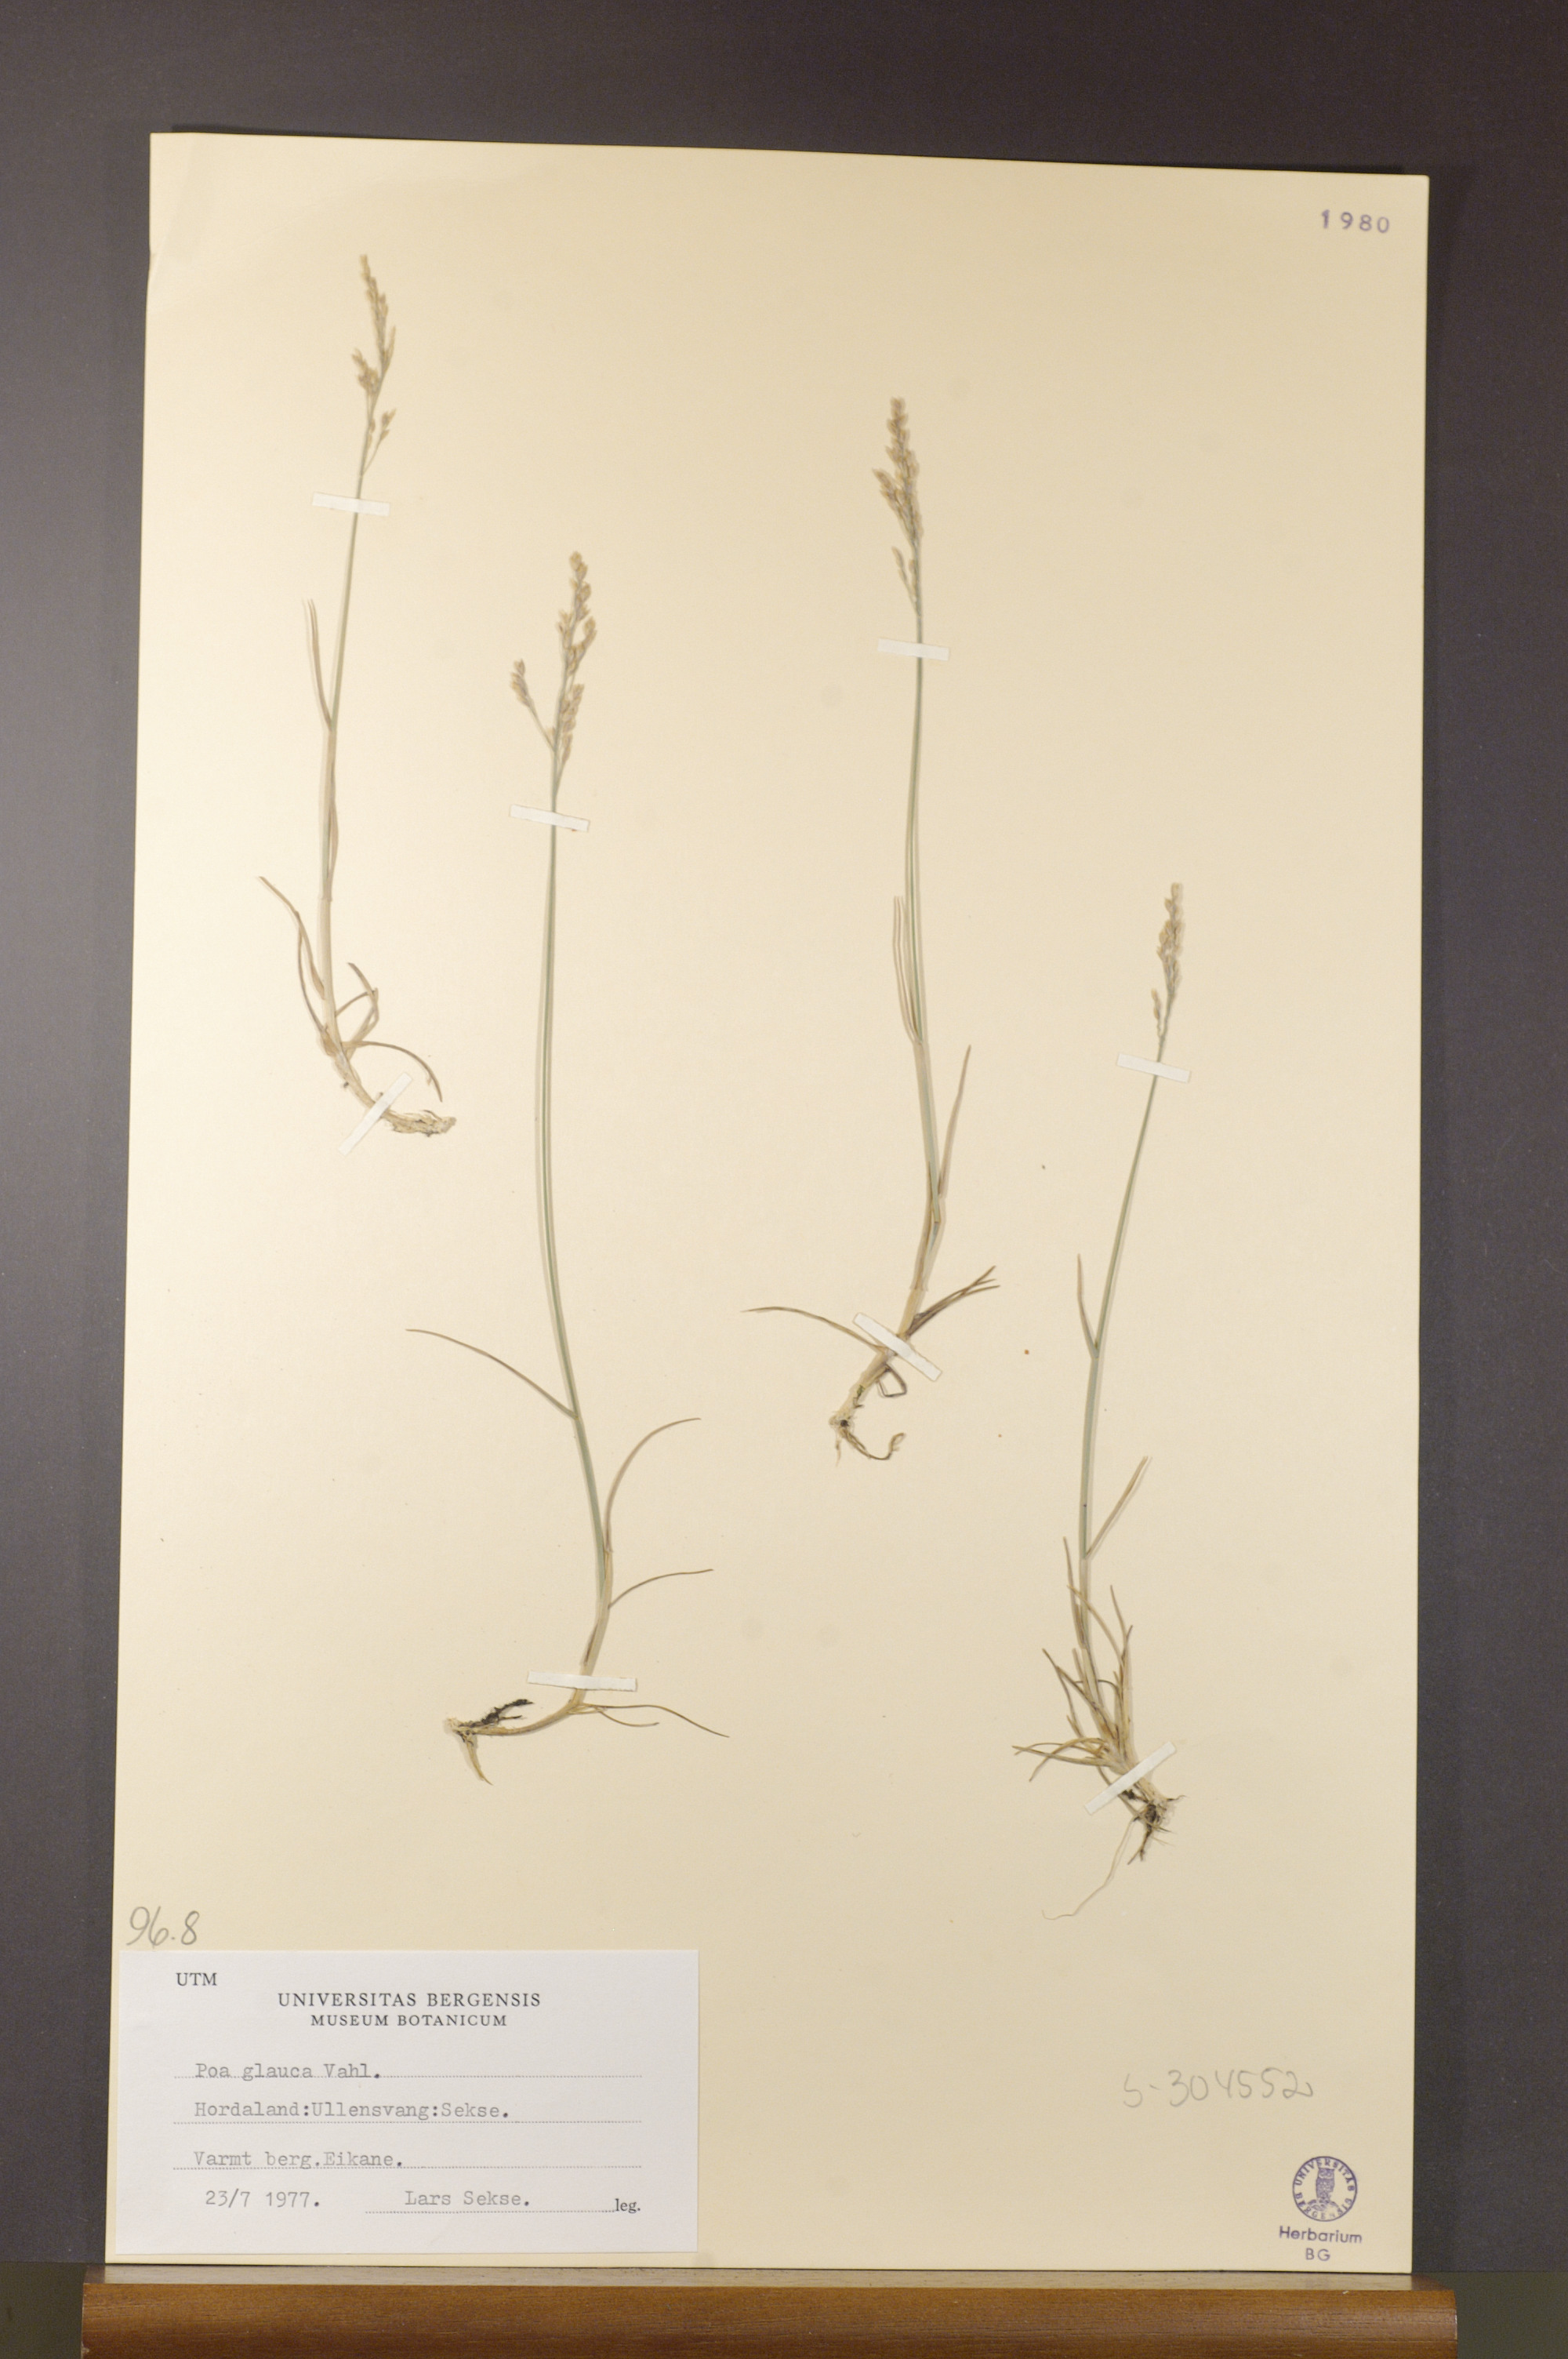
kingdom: Plantae
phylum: Tracheophyta
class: Liliopsida
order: Poales
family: Poaceae
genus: Poa
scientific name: Poa glauca
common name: Glaucous bluegrass
